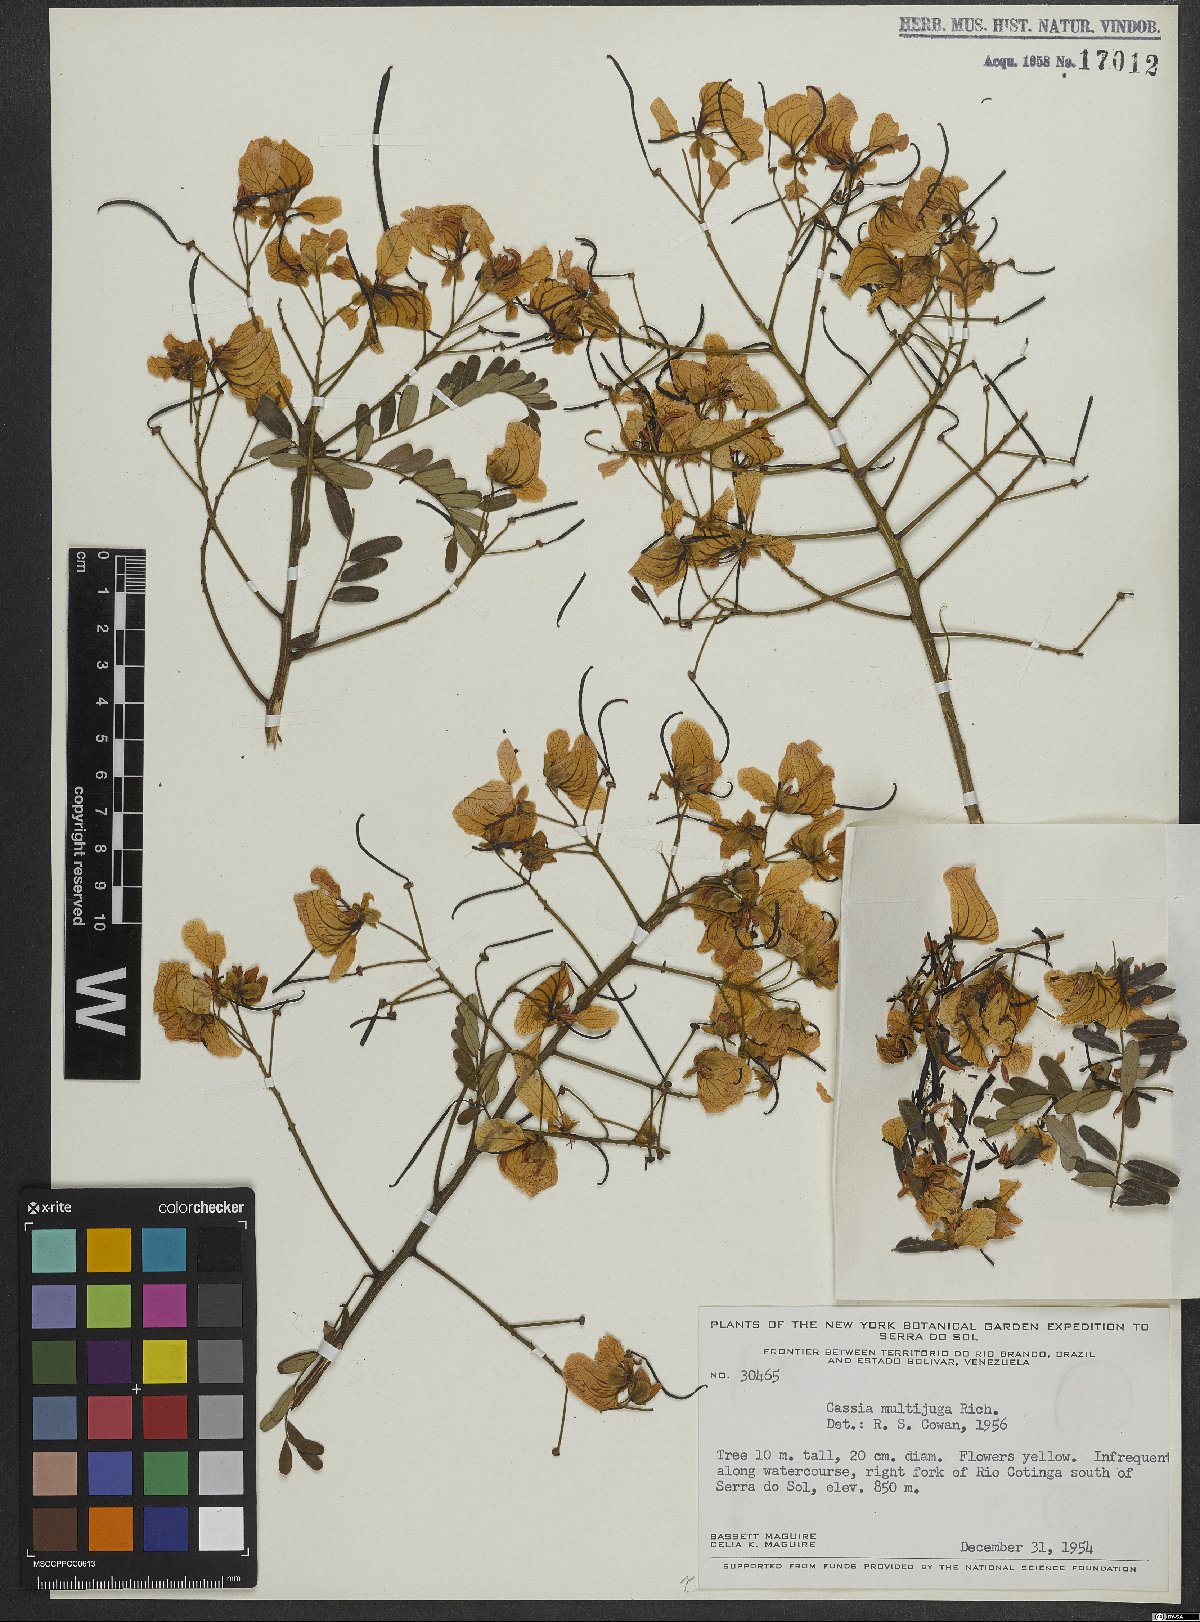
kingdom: Plantae
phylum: Tracheophyta
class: Magnoliopsida
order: Fabales
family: Fabaceae
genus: Senna
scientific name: Senna multijuga
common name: False sicklepod
